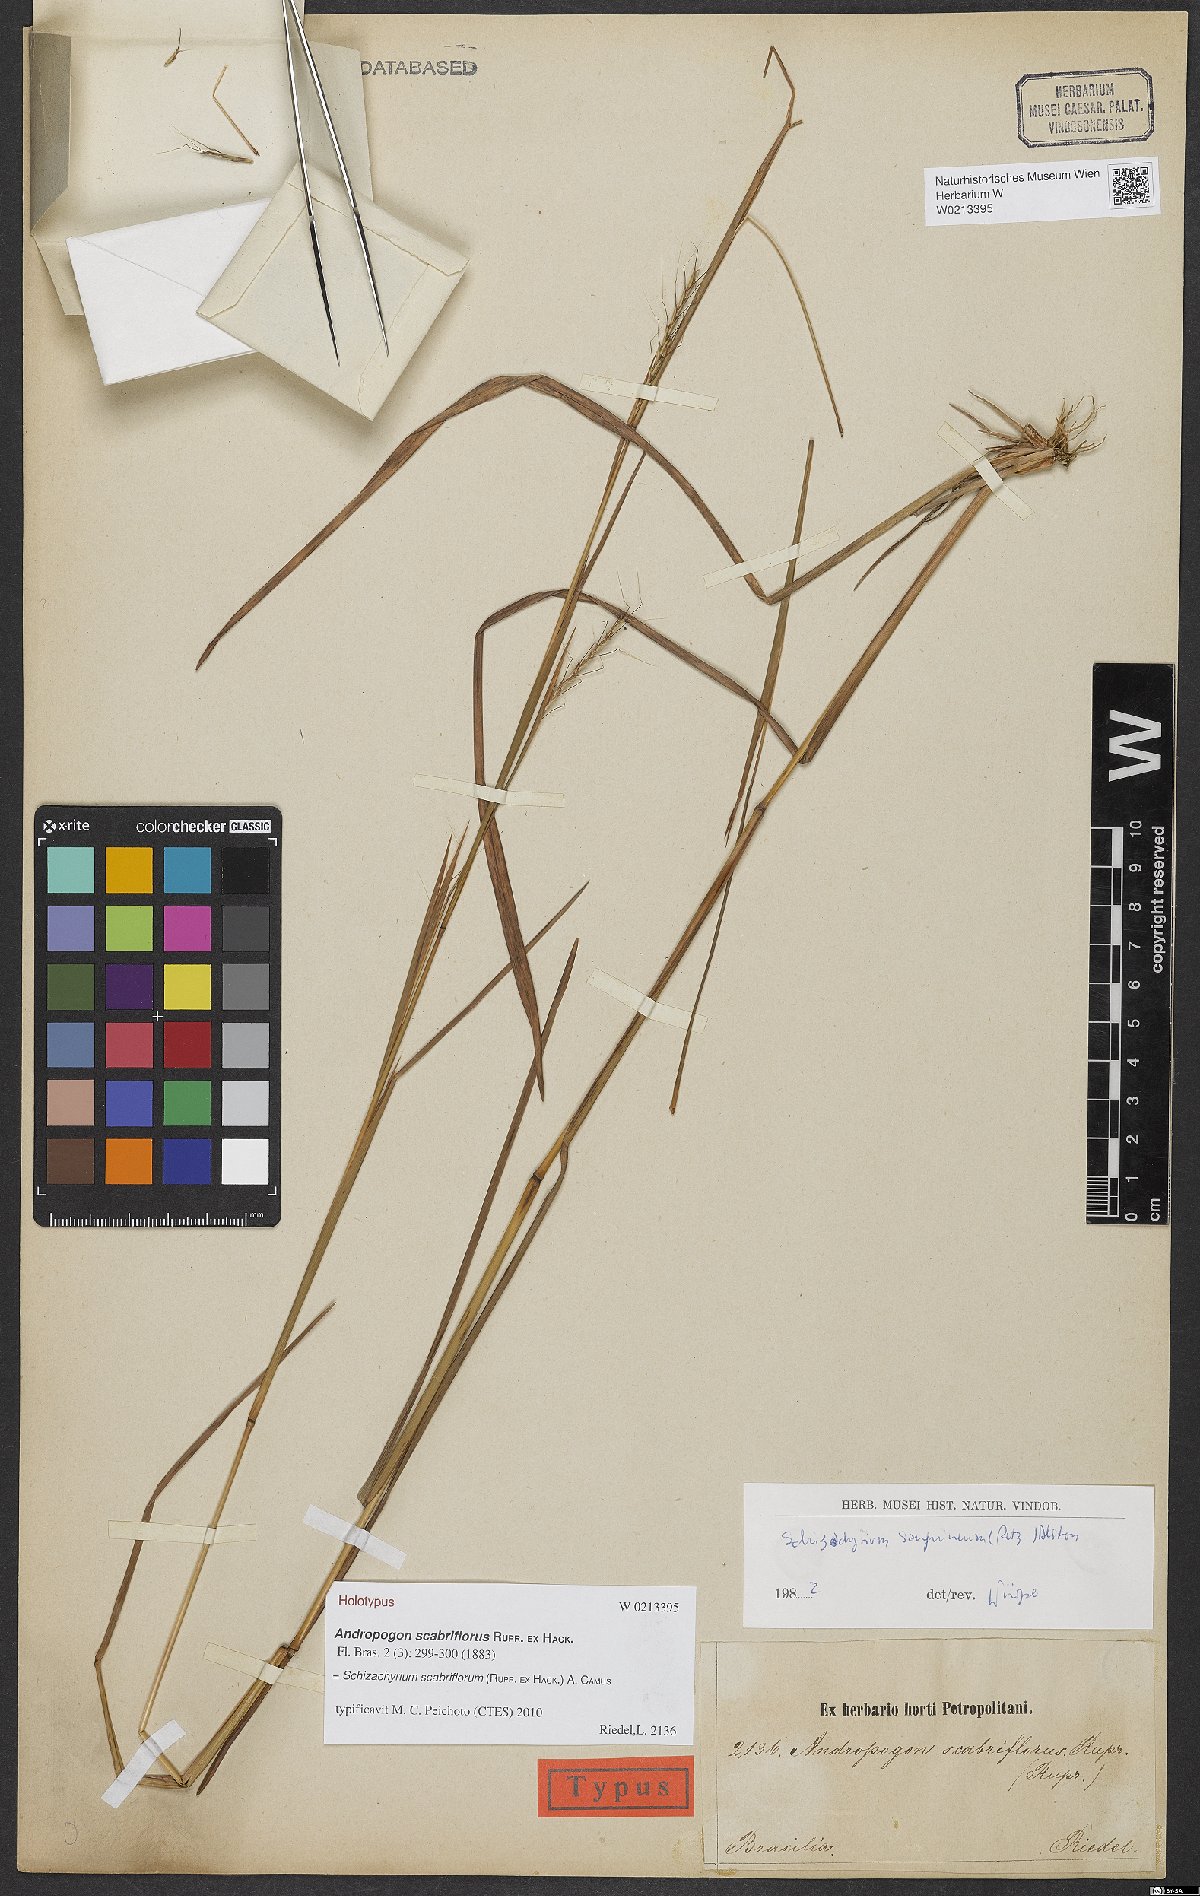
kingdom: Plantae
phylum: Tracheophyta
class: Liliopsida
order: Poales
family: Poaceae
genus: Schizachyrium
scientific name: Schizachyrium scabriflorum
